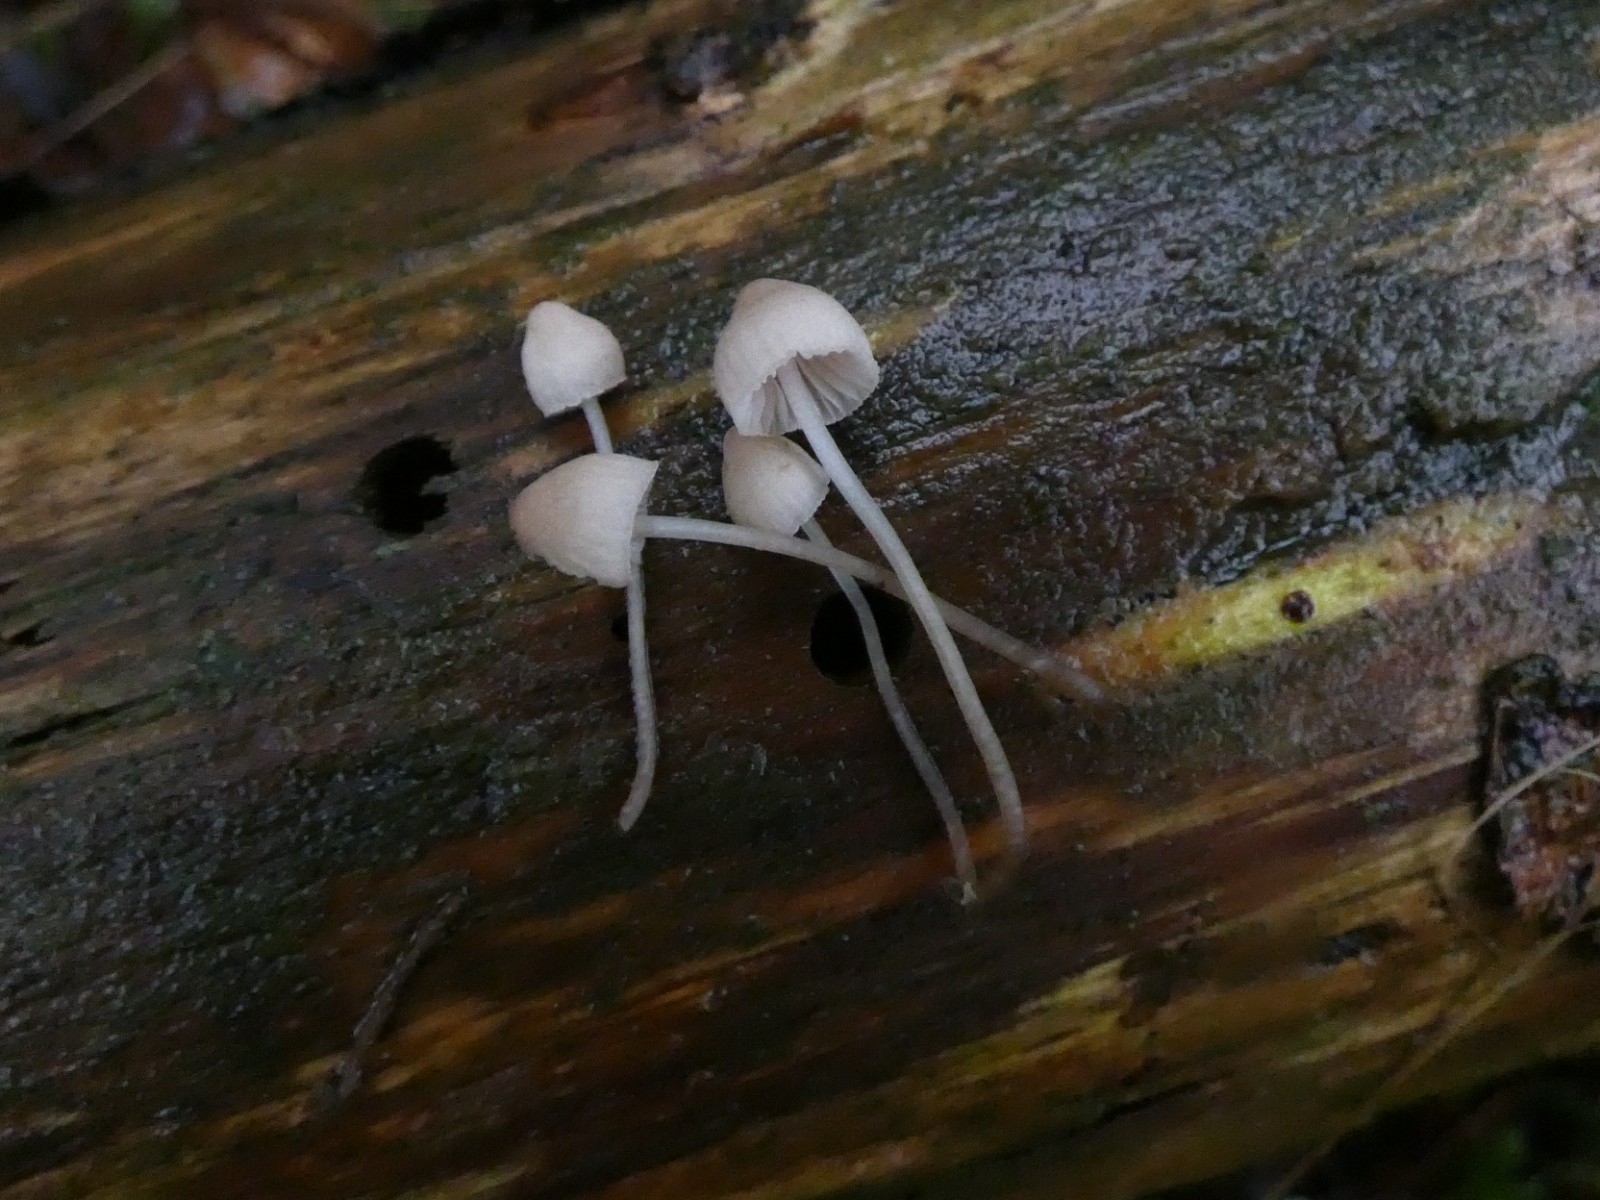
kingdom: Fungi
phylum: Basidiomycota
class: Agaricomycetes
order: Agaricales
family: Mycenaceae
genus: Mycena
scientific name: Mycena metata
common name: rødlig huesvamp
